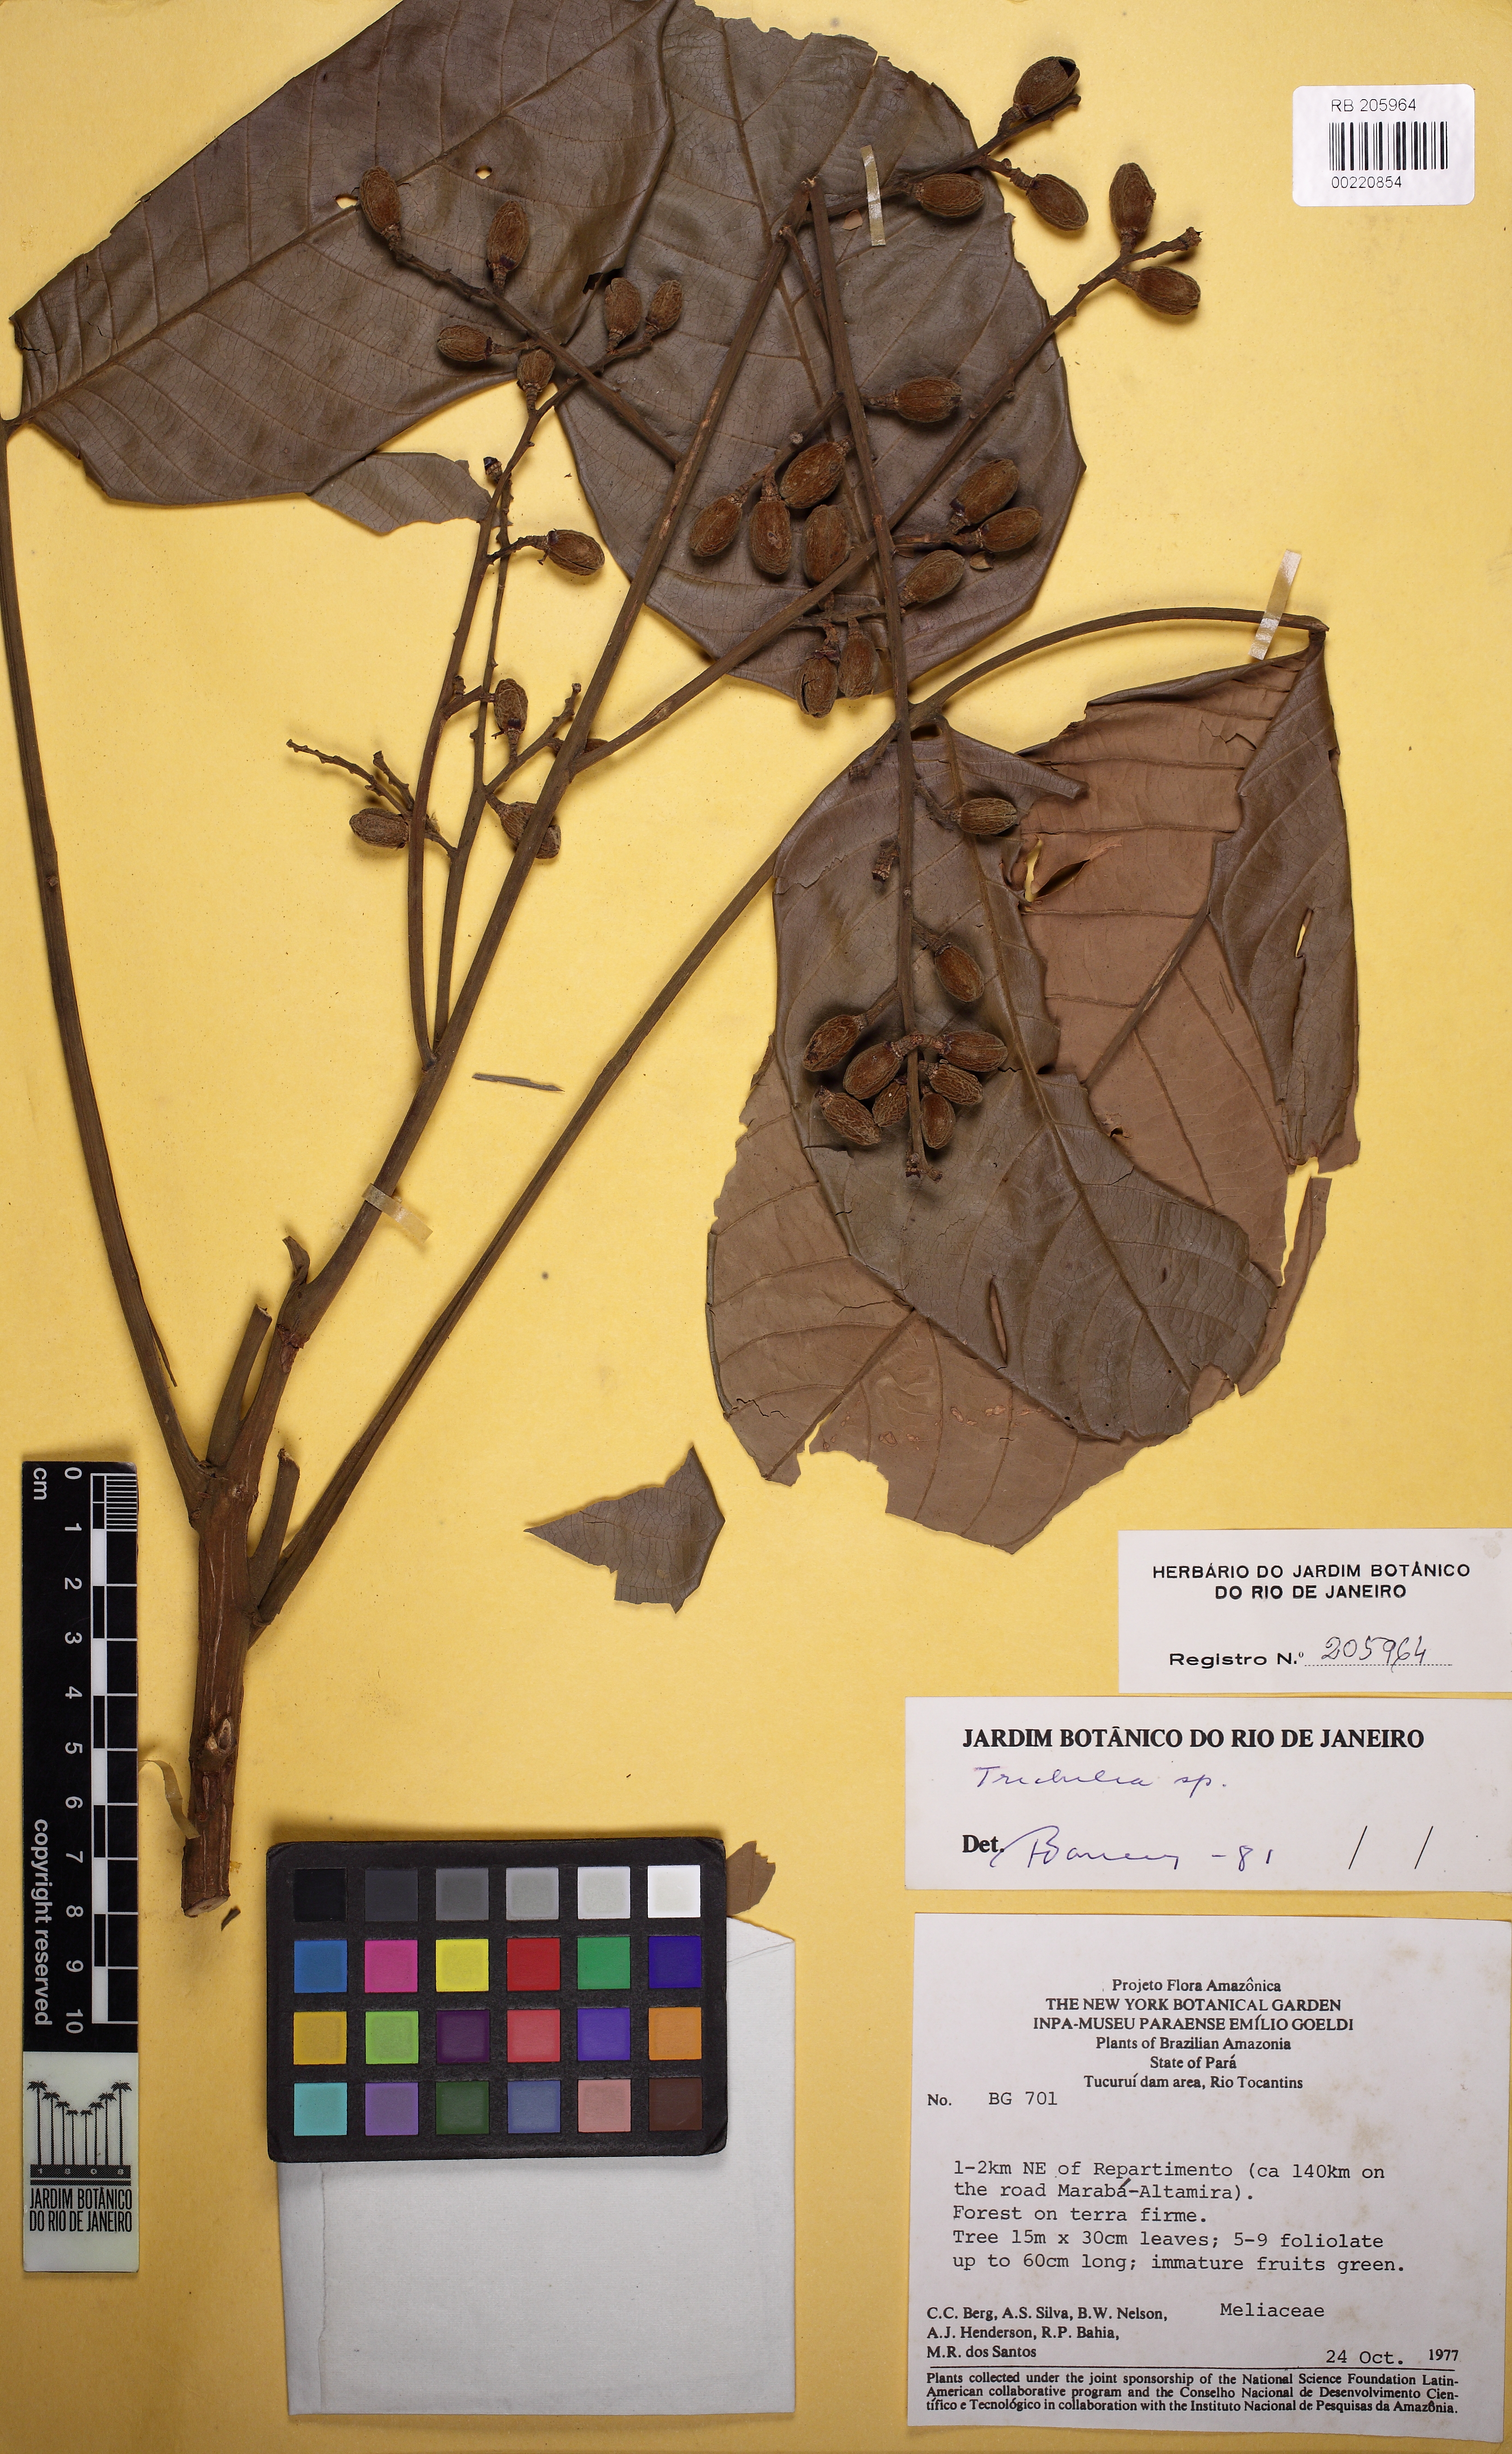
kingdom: Plantae
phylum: Tracheophyta
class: Magnoliopsida
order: Sapindales
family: Meliaceae
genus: Trichilia
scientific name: Trichilia septentrionalis
